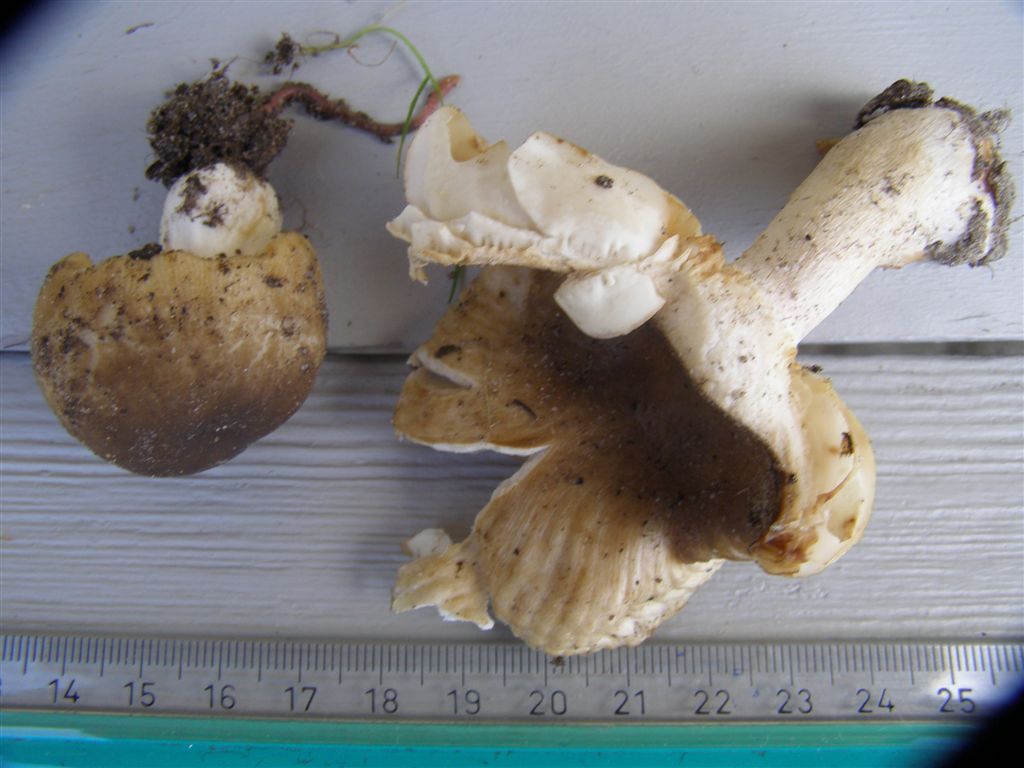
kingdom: Fungi
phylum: Basidiomycota
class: Agaricomycetes
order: Russulales
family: Russulaceae
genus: Russula
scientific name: Russula recondita
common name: mild kam-skørhat
